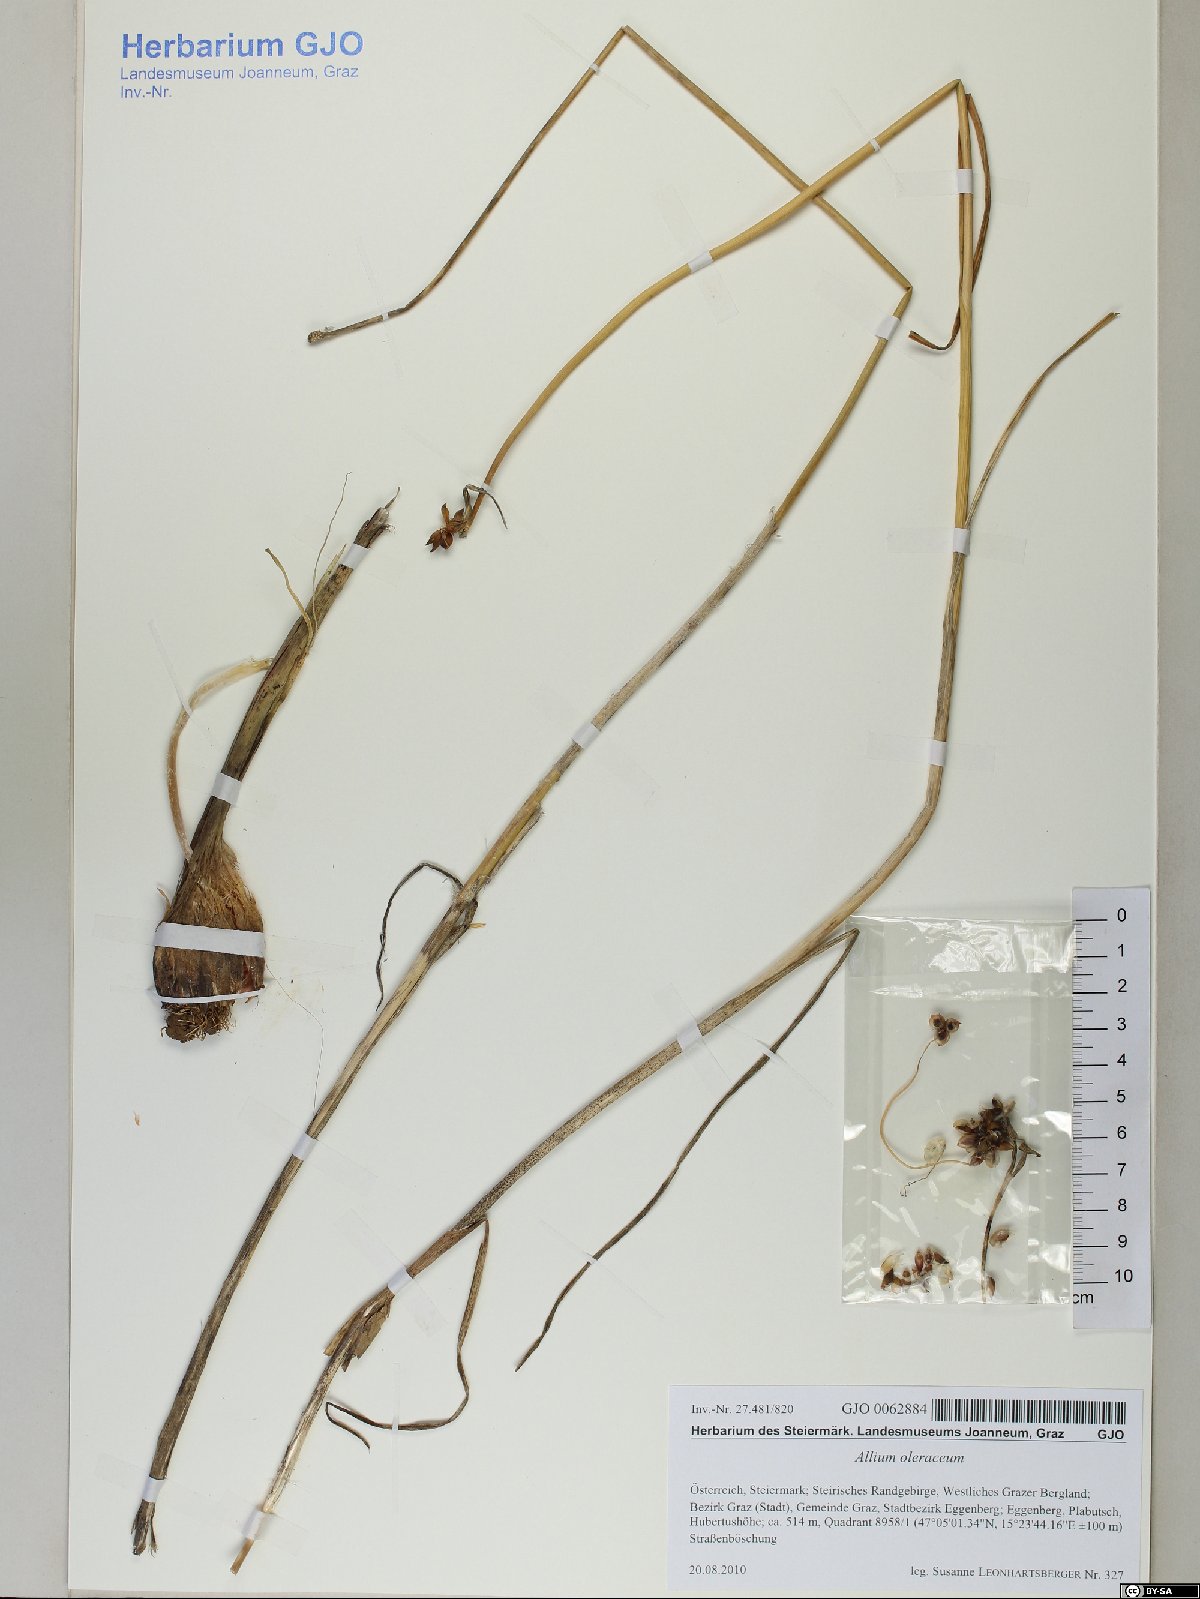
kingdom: Plantae
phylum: Tracheophyta
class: Liliopsida
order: Asparagales
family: Amaryllidaceae
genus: Allium
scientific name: Allium oleraceum
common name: Field garlic
